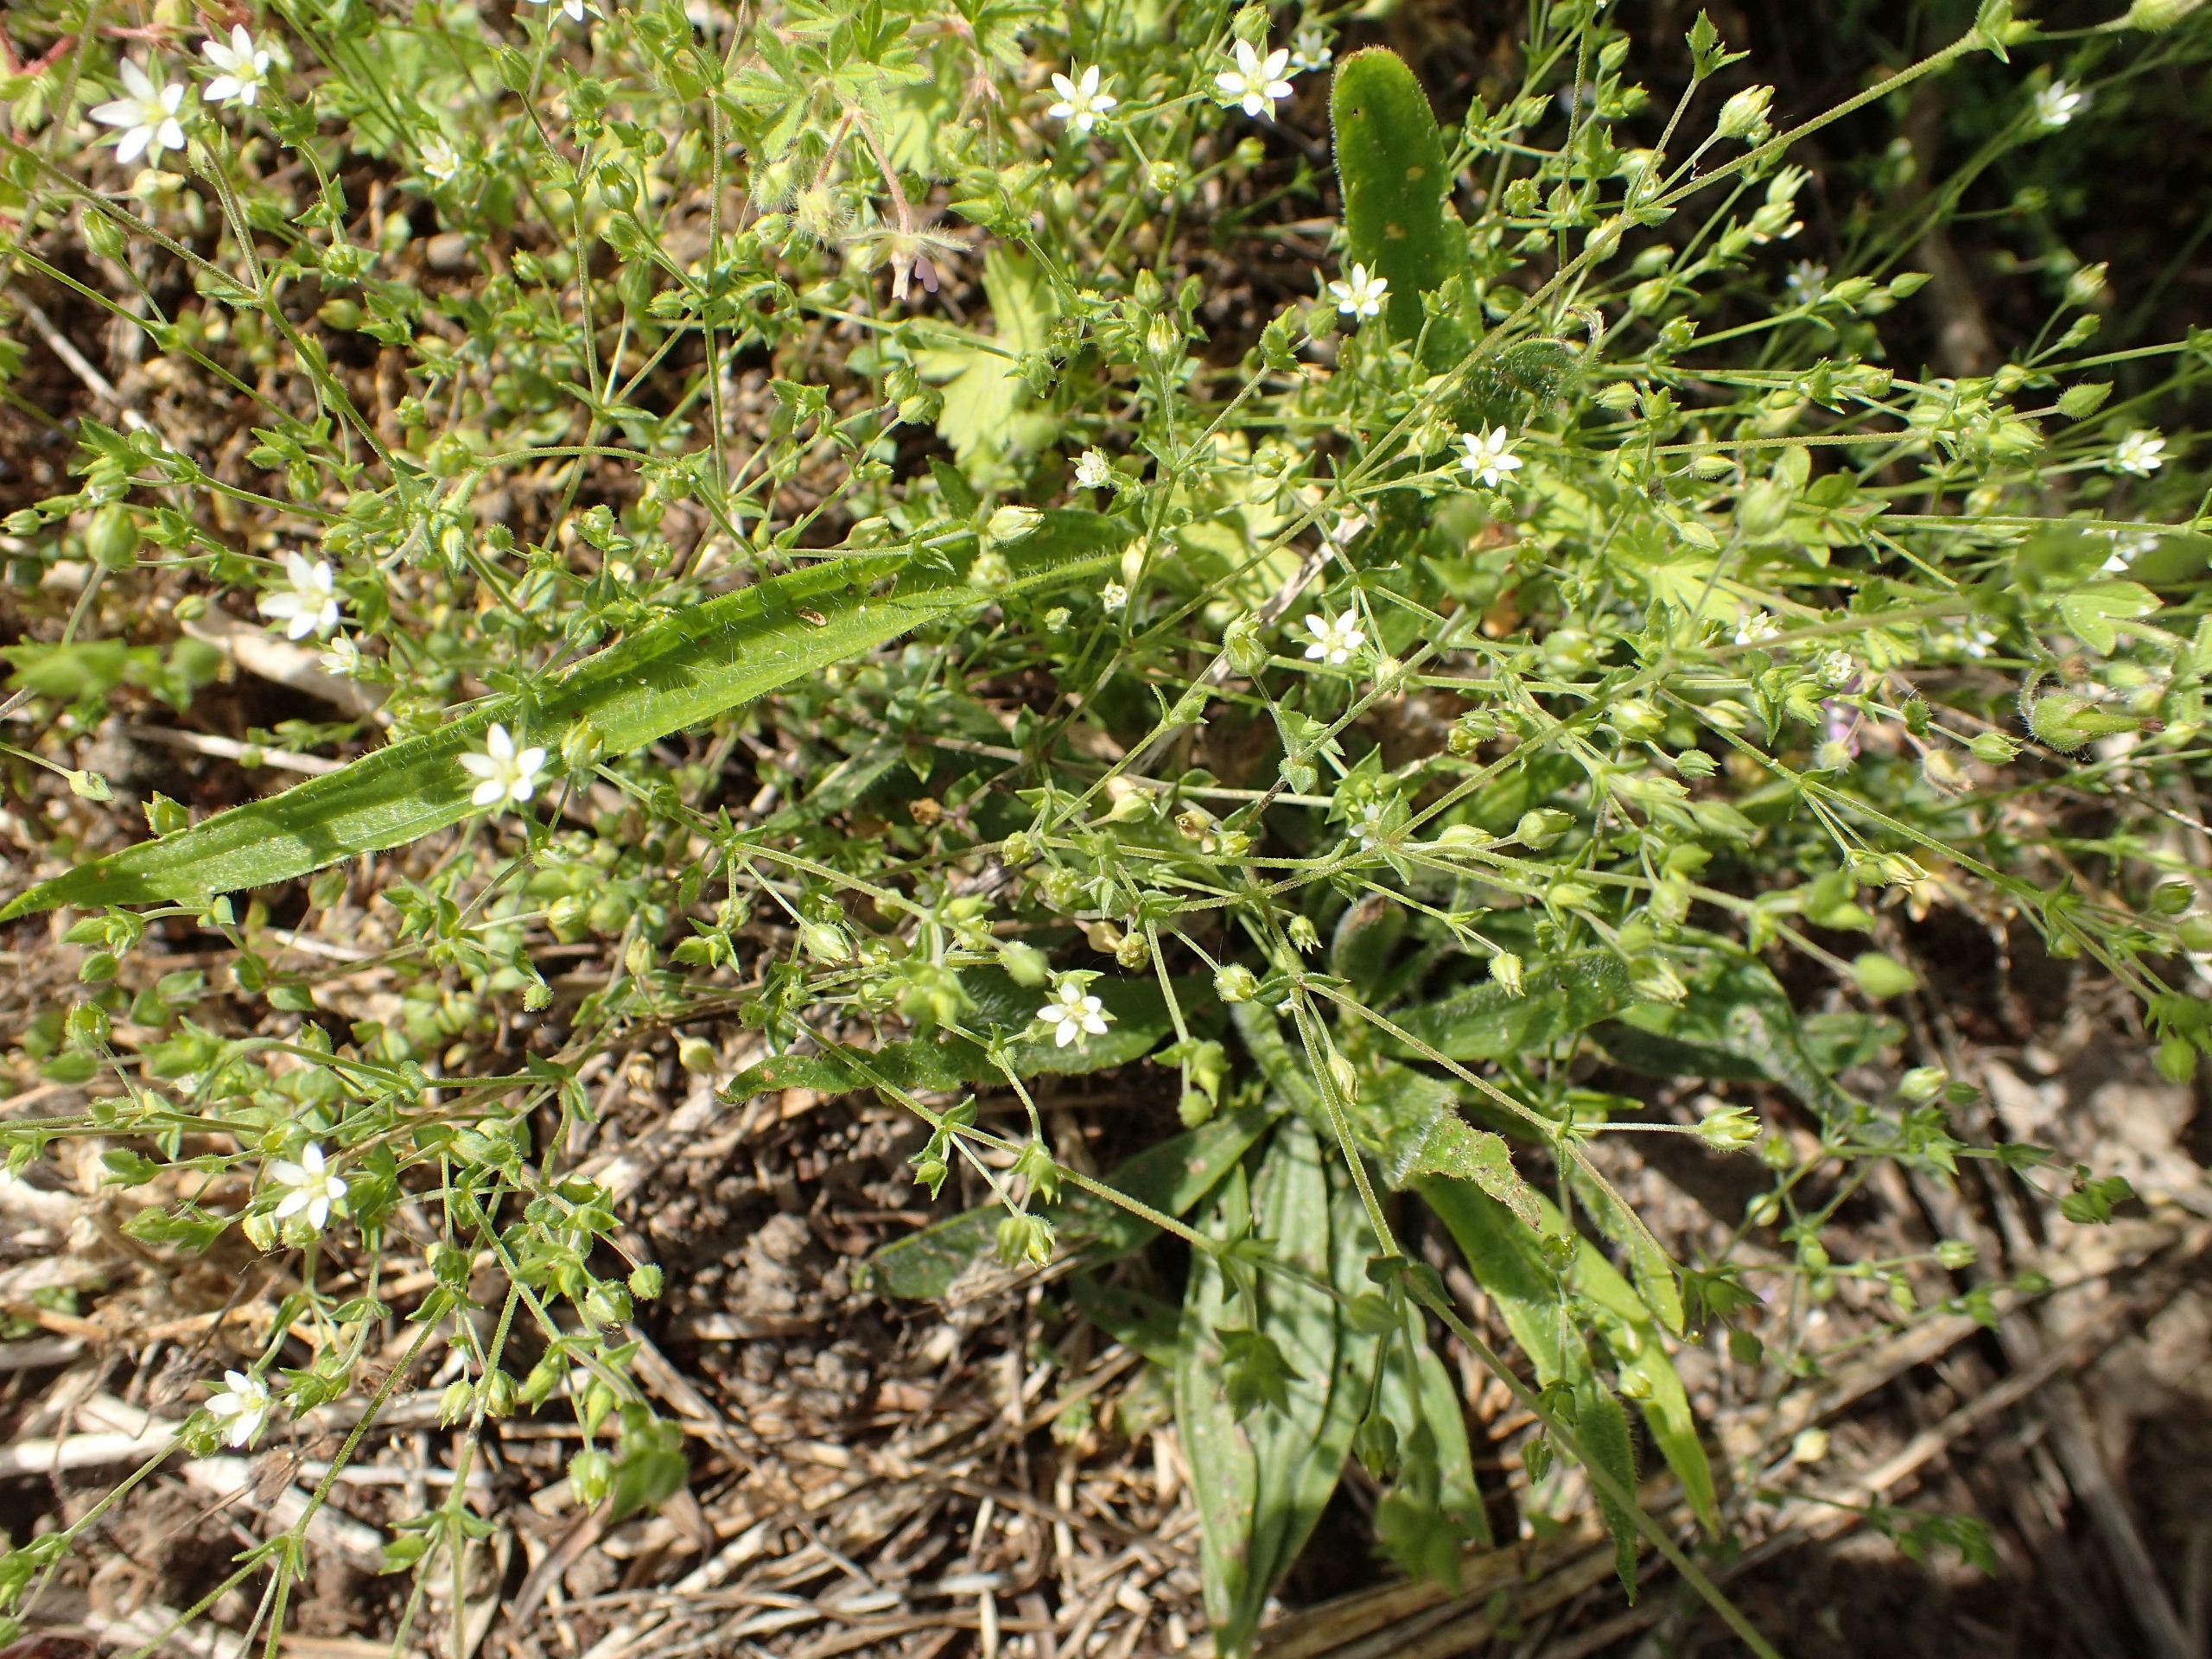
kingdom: Plantae
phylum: Tracheophyta
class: Magnoliopsida
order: Caryophyllales
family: Caryophyllaceae
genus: Arenaria
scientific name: Arenaria serpyllifolia
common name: Almindelig markarve
